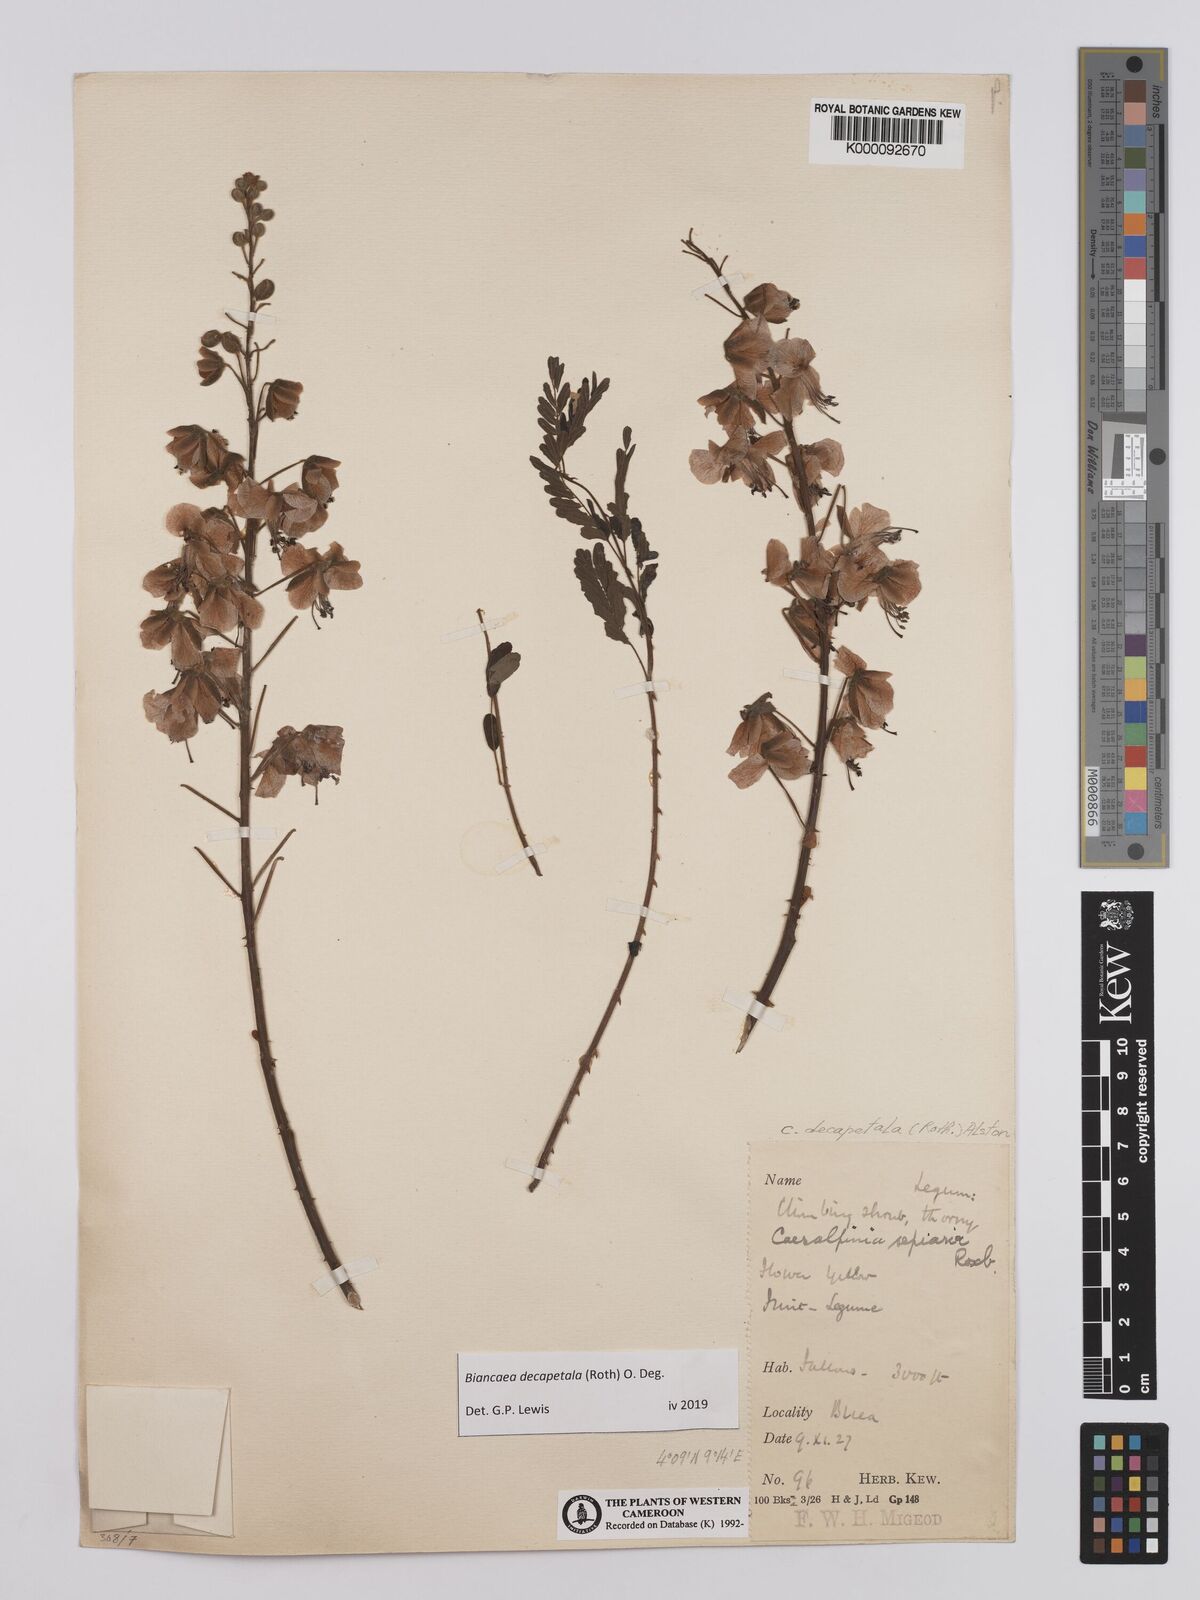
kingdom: Plantae
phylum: Tracheophyta
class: Magnoliopsida
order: Fabales
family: Fabaceae
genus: Biancaea
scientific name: Biancaea decapetala
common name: Cat's claw
